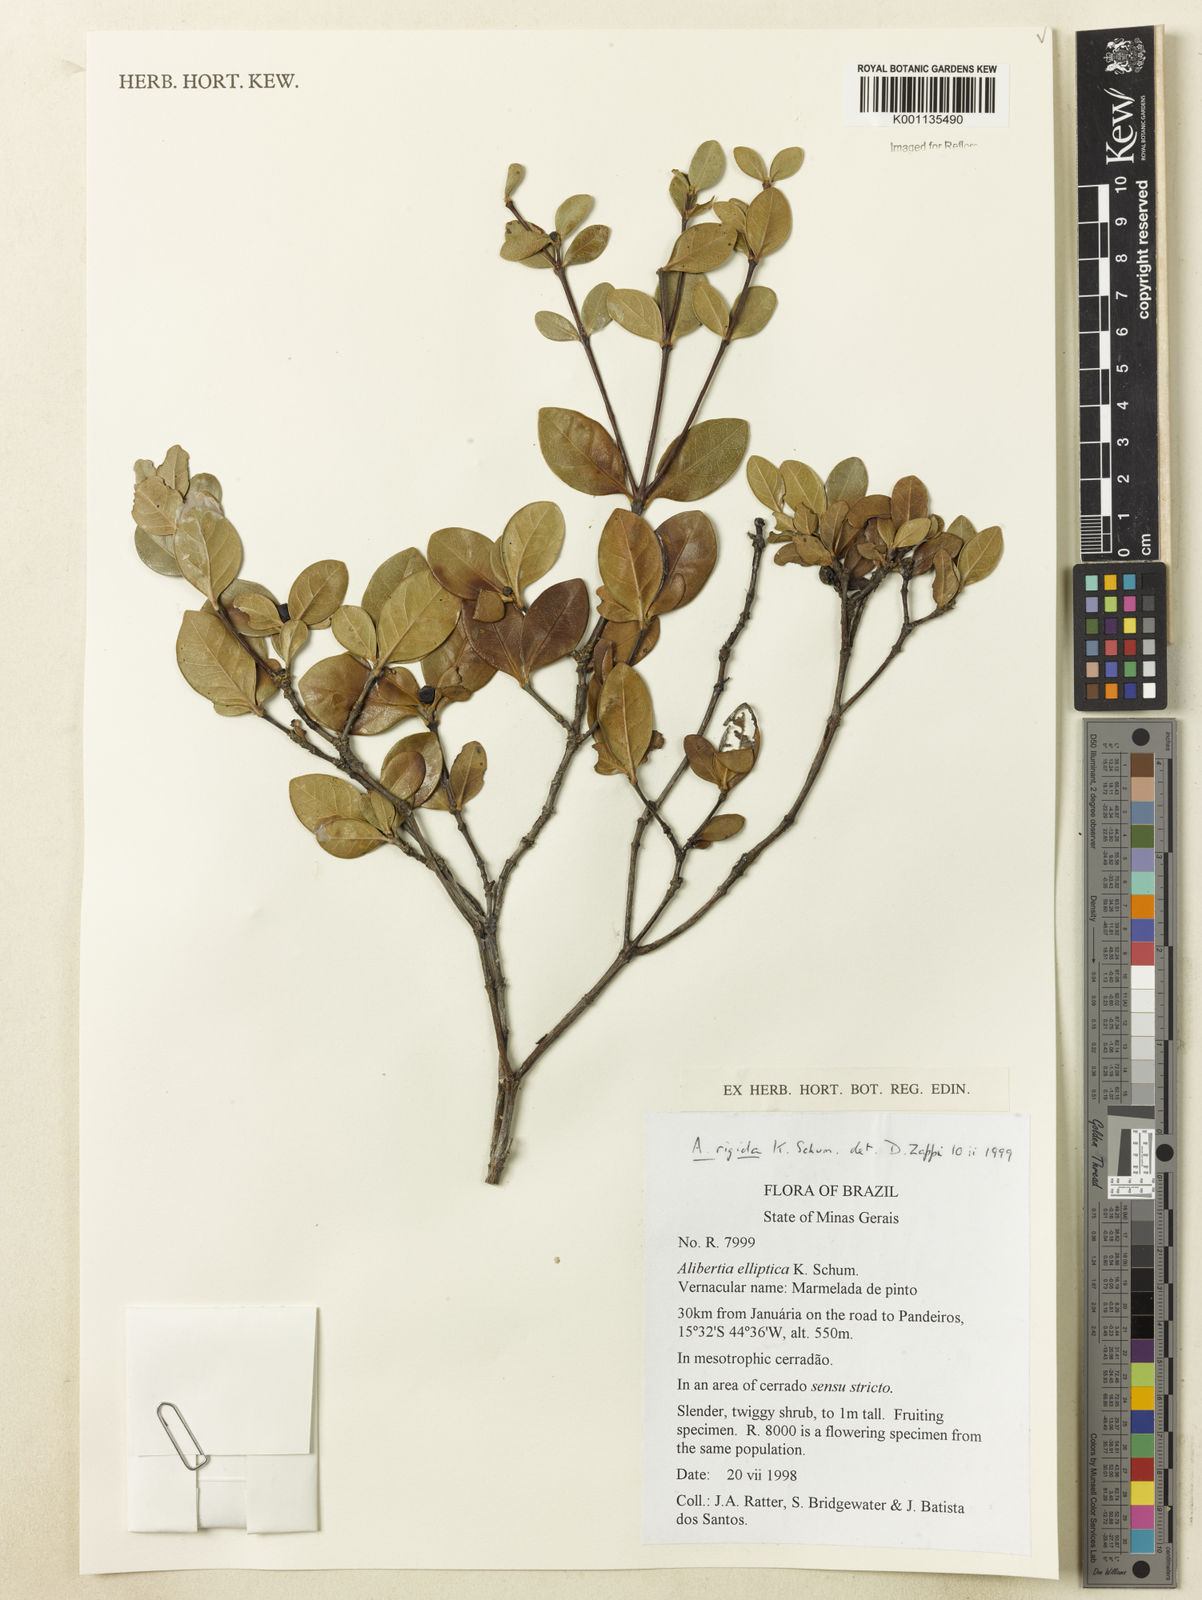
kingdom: Plantae
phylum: Tracheophyta
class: Magnoliopsida
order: Gentianales
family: Rubiaceae
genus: Cordiera
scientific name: Cordiera rigida
